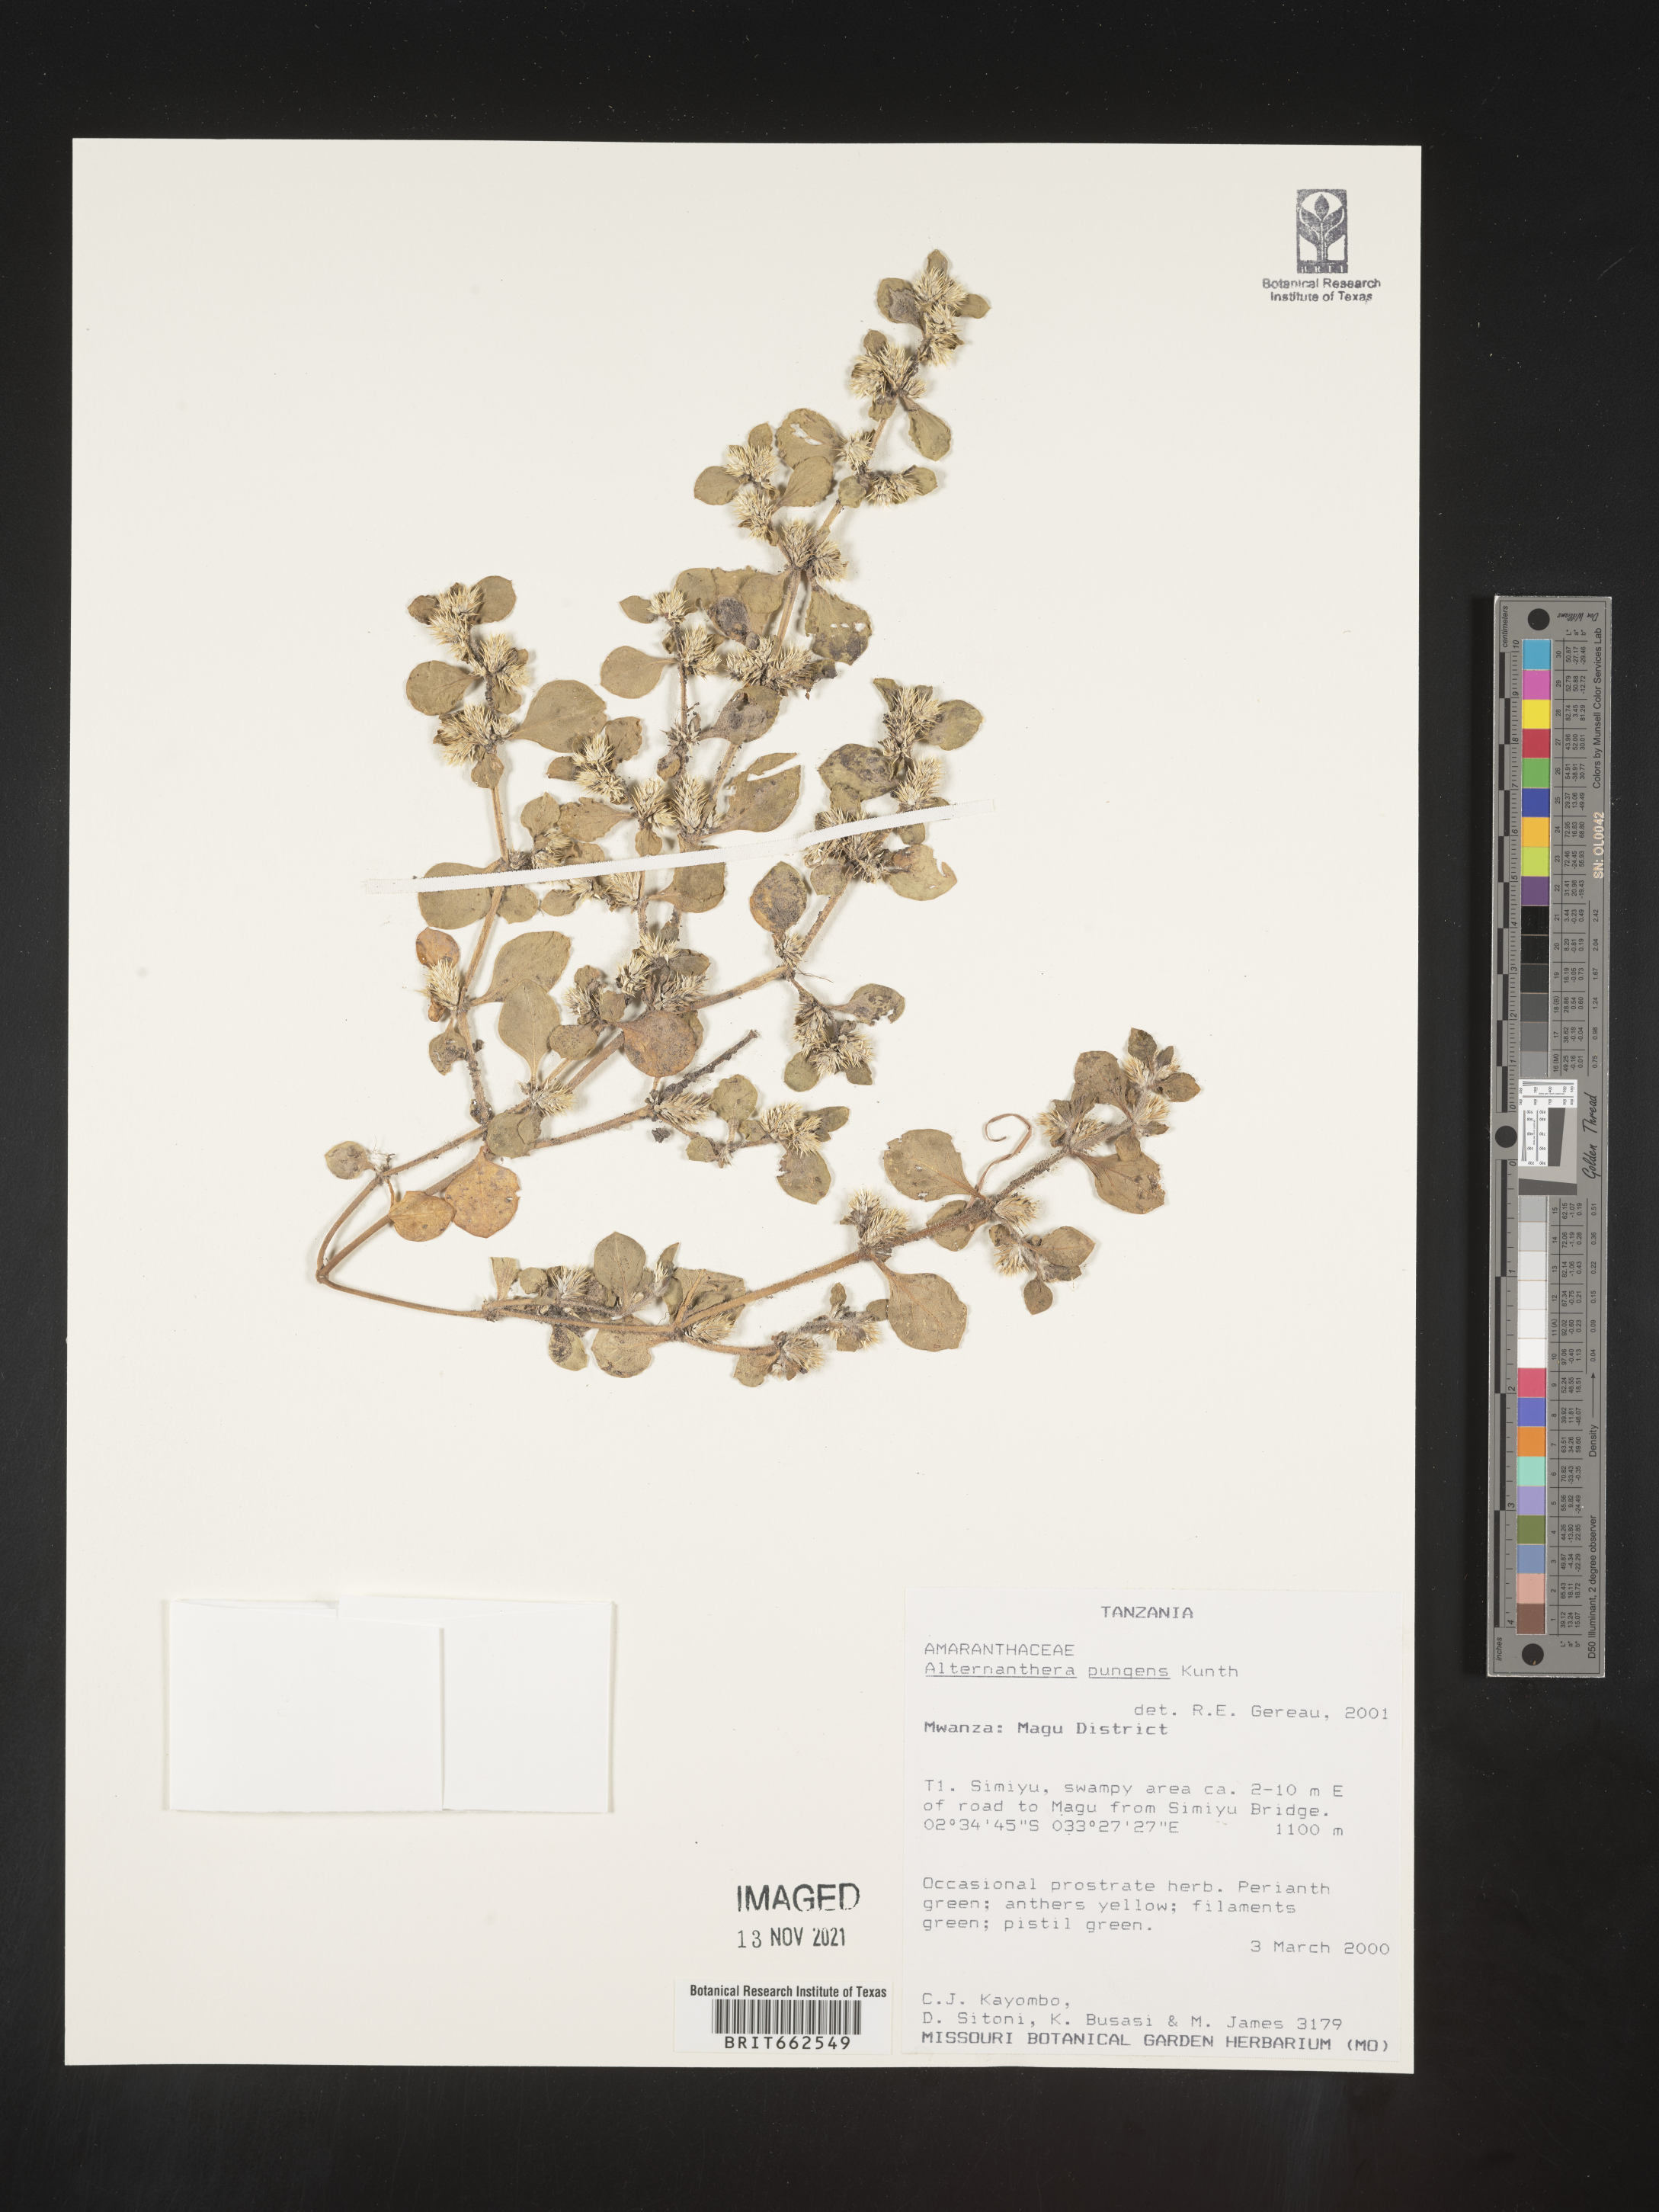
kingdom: Plantae
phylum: Tracheophyta
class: Magnoliopsida
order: Caryophyllales
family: Amaranthaceae
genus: Alternanthera
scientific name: Alternanthera
